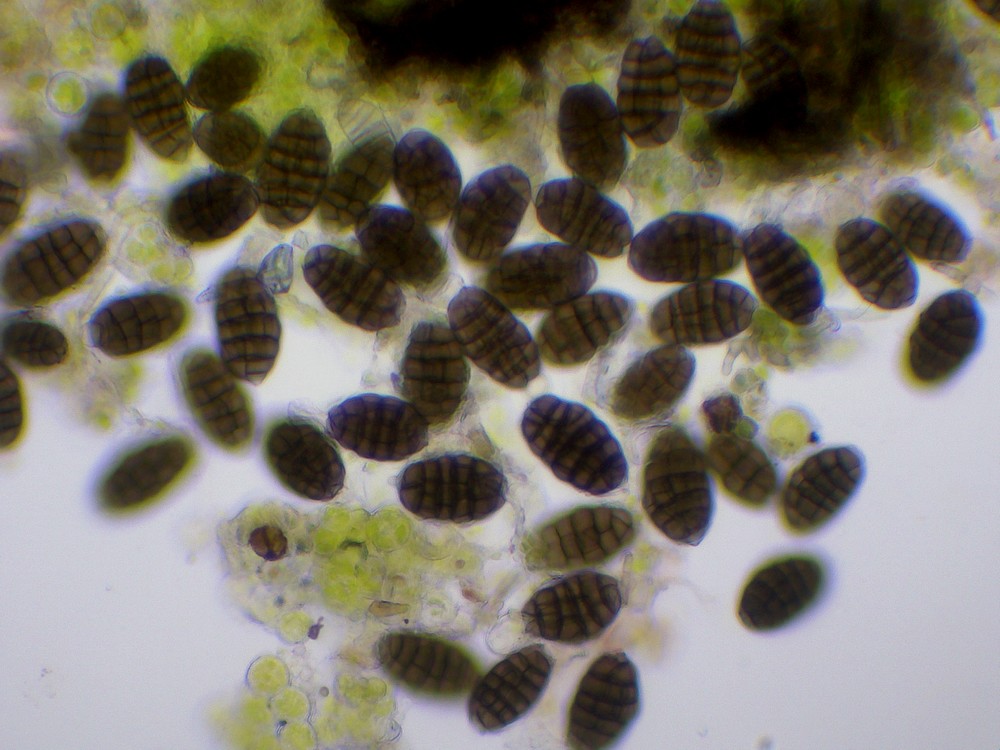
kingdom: Fungi
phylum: Ascomycota
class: Dothideomycetes
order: Dothideales
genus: Monodictys
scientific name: Monodictys paradoxa
